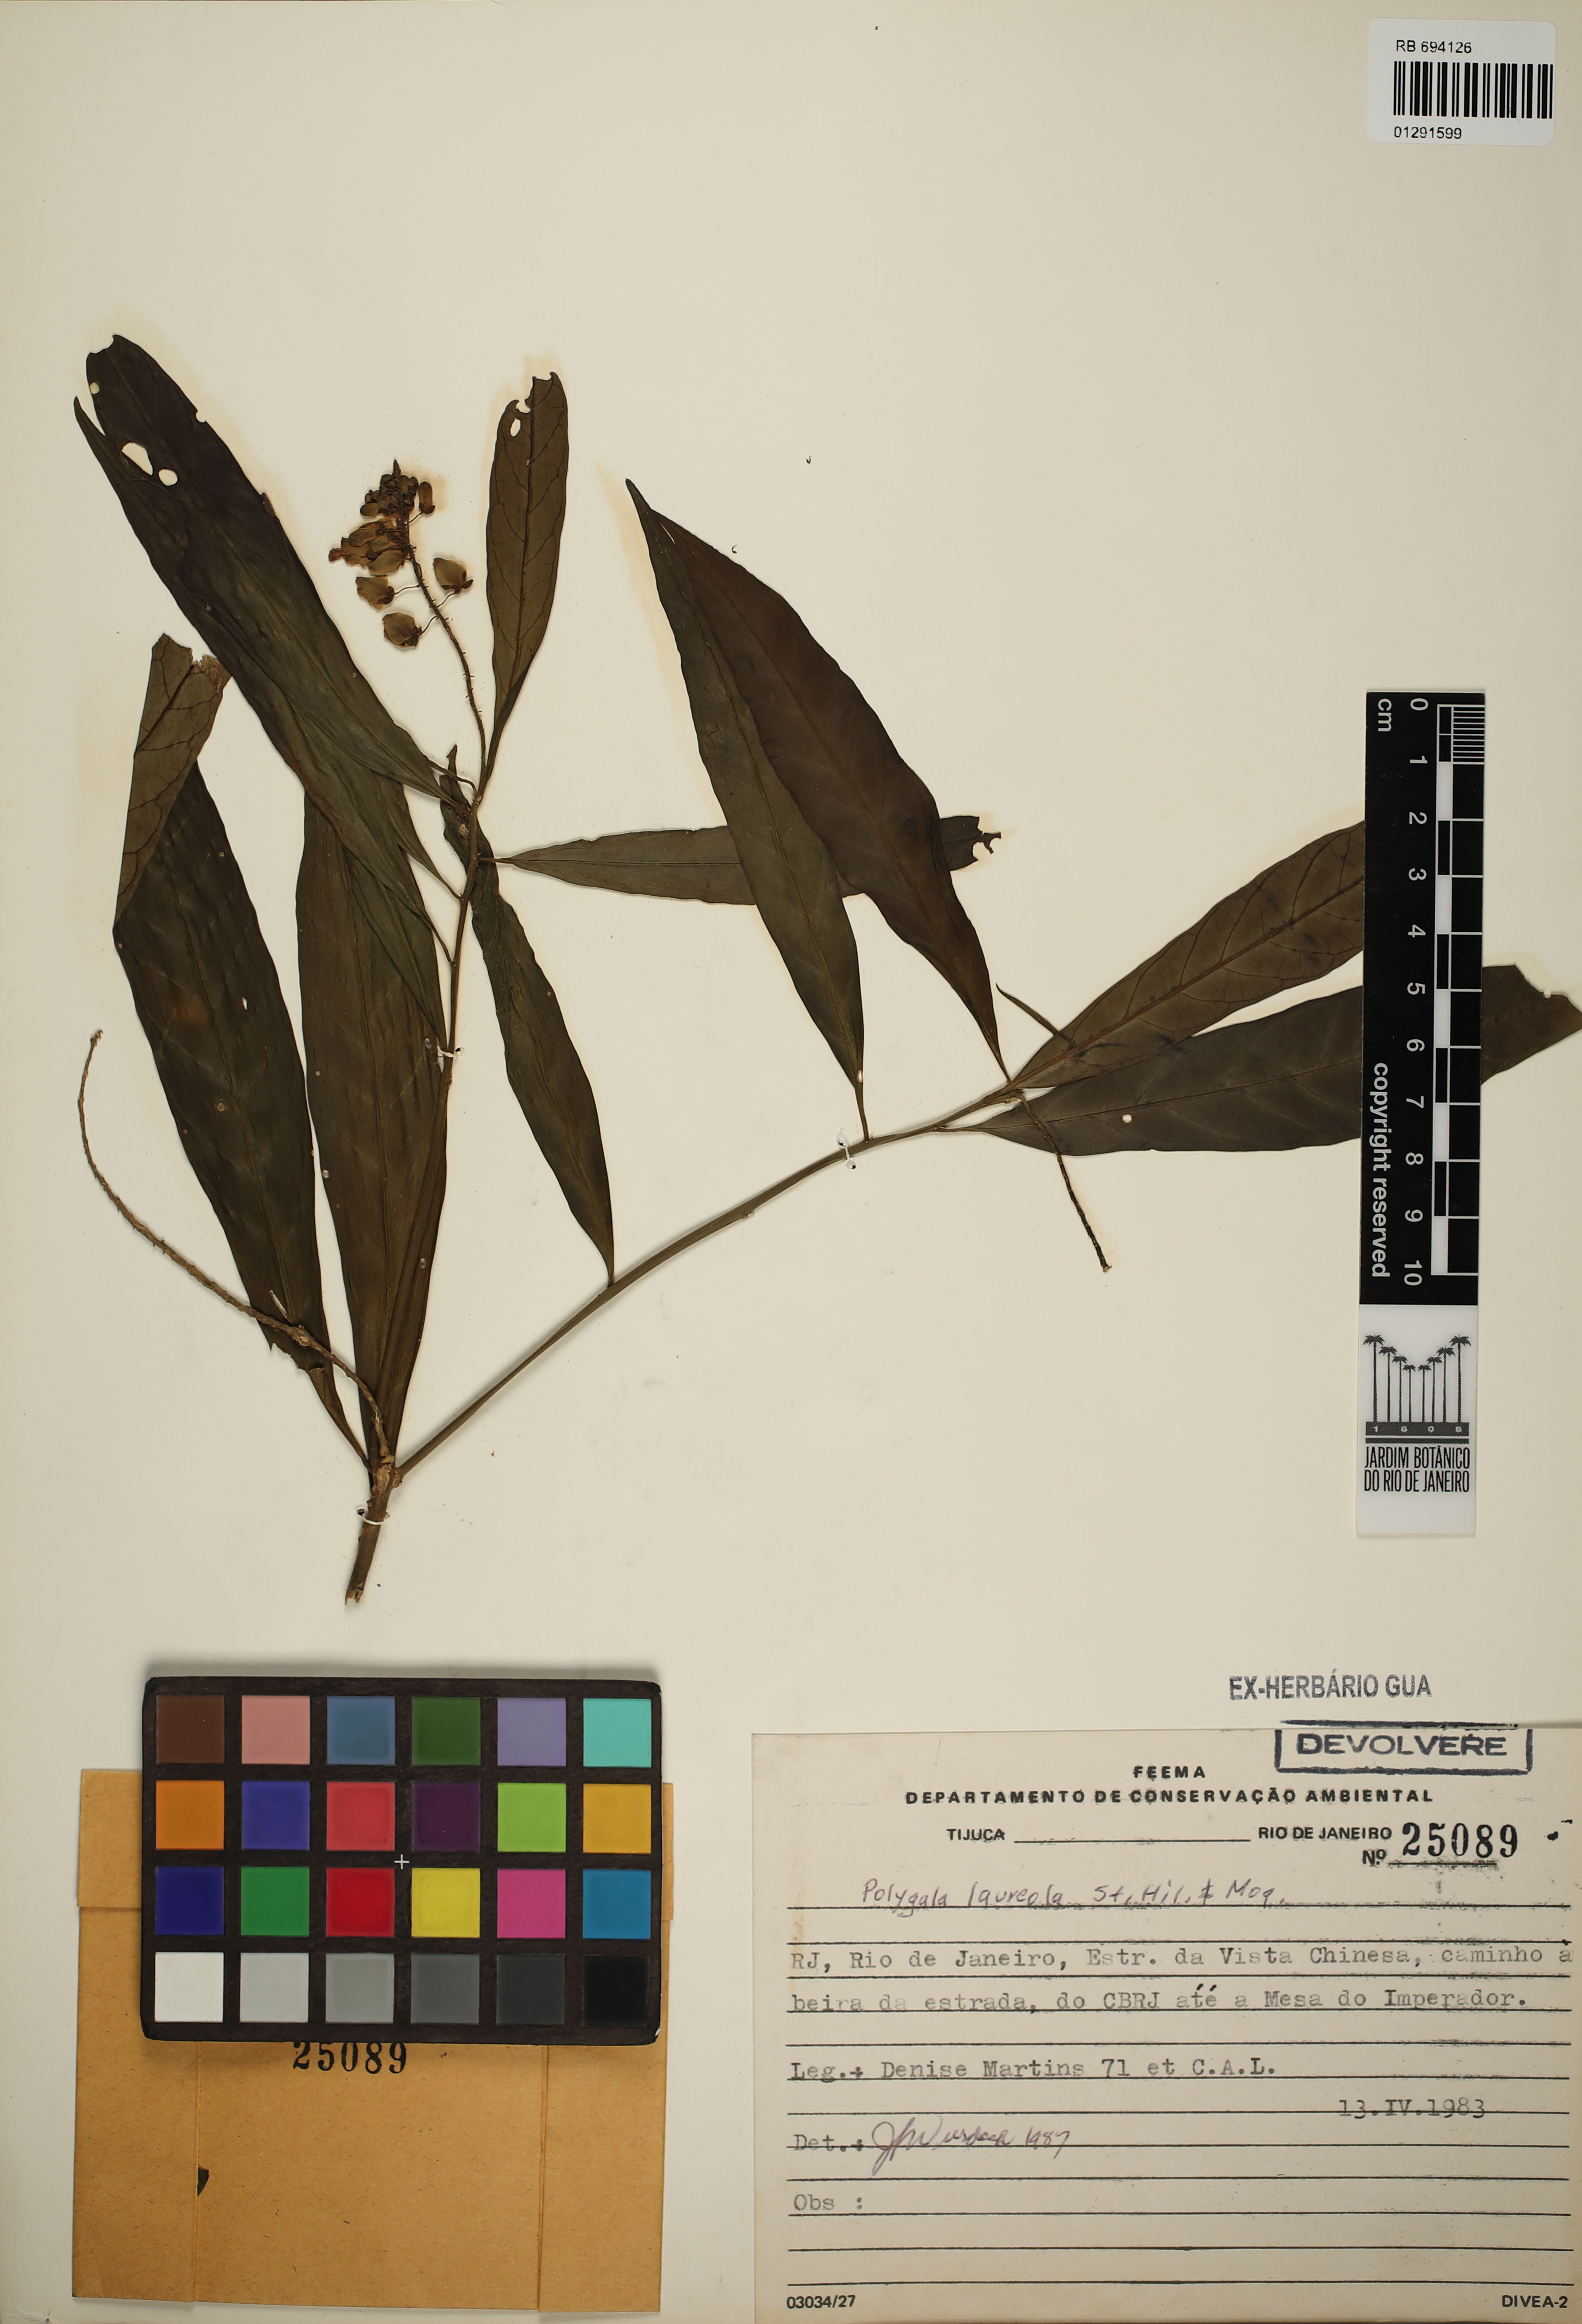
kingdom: Plantae
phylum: Tracheophyta
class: Magnoliopsida
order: Fabales
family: Polygalaceae
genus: Caamembeca
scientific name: Caamembeca salicifolia
